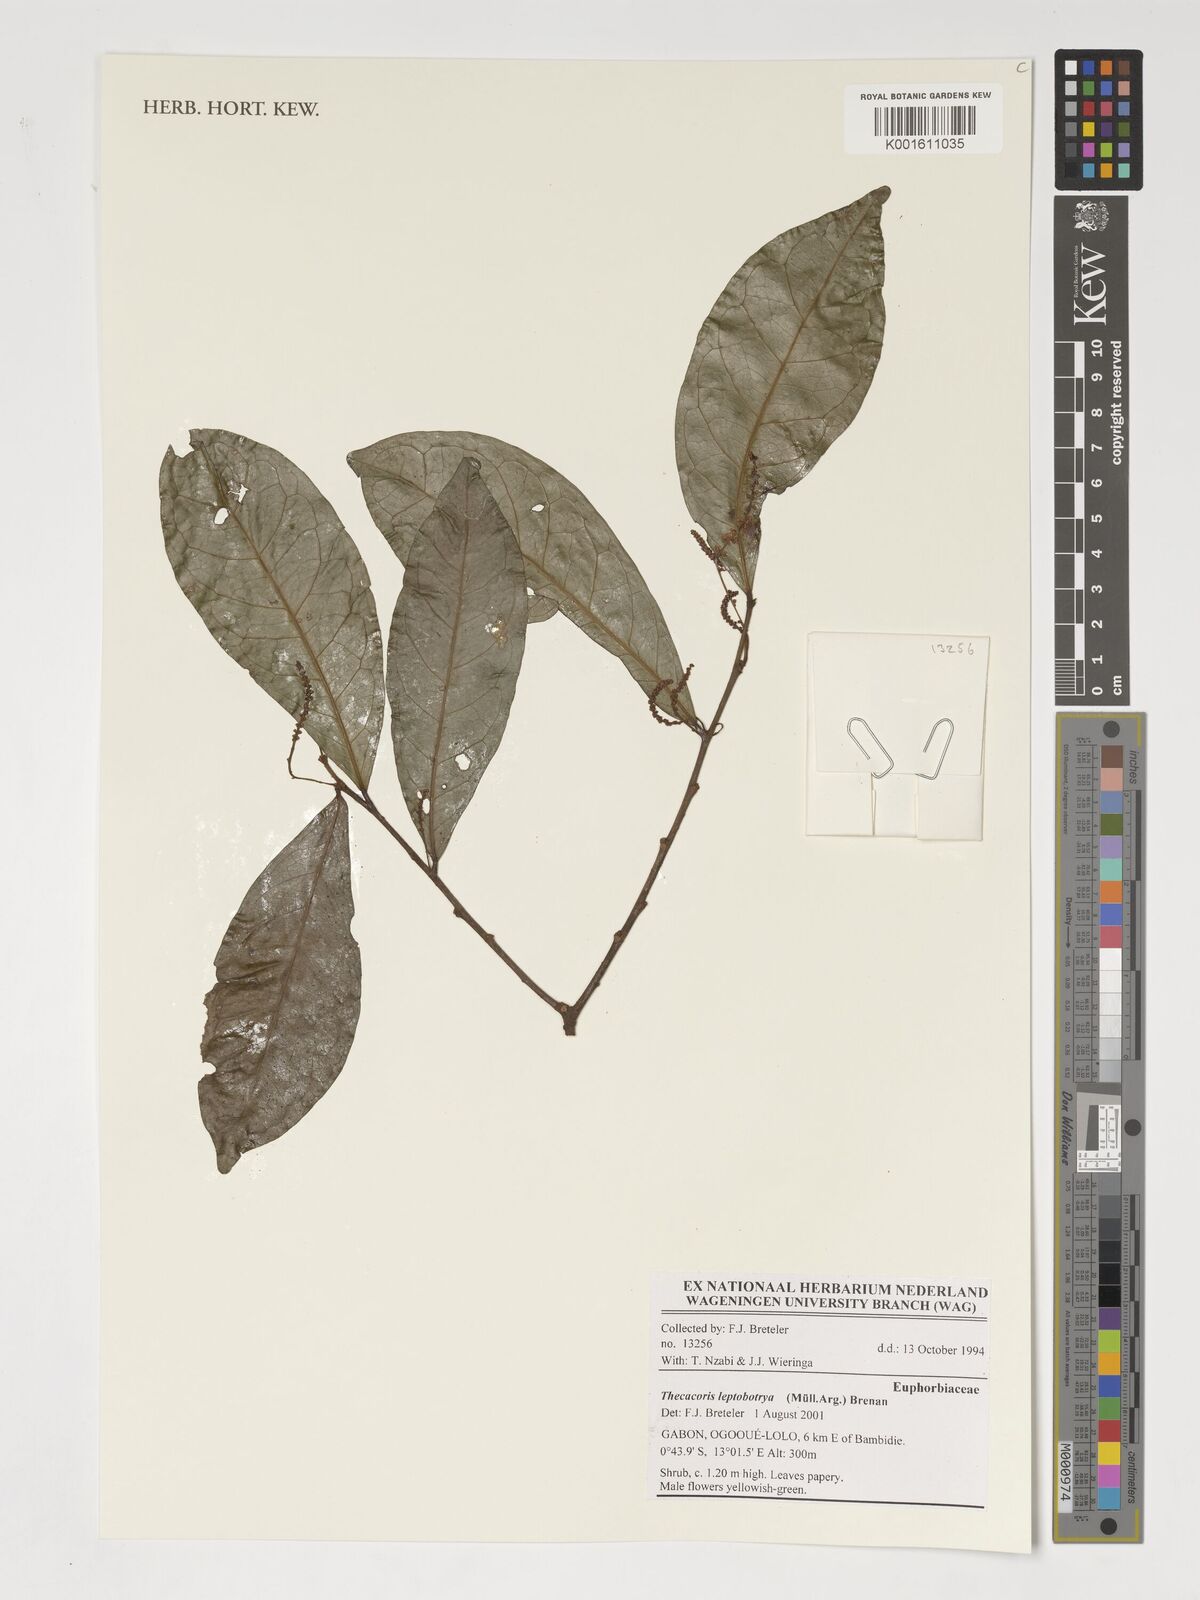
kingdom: Plantae
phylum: Tracheophyta
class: Magnoliopsida
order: Malpighiales
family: Phyllanthaceae
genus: Thecacoris
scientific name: Thecacoris leptobotrya
